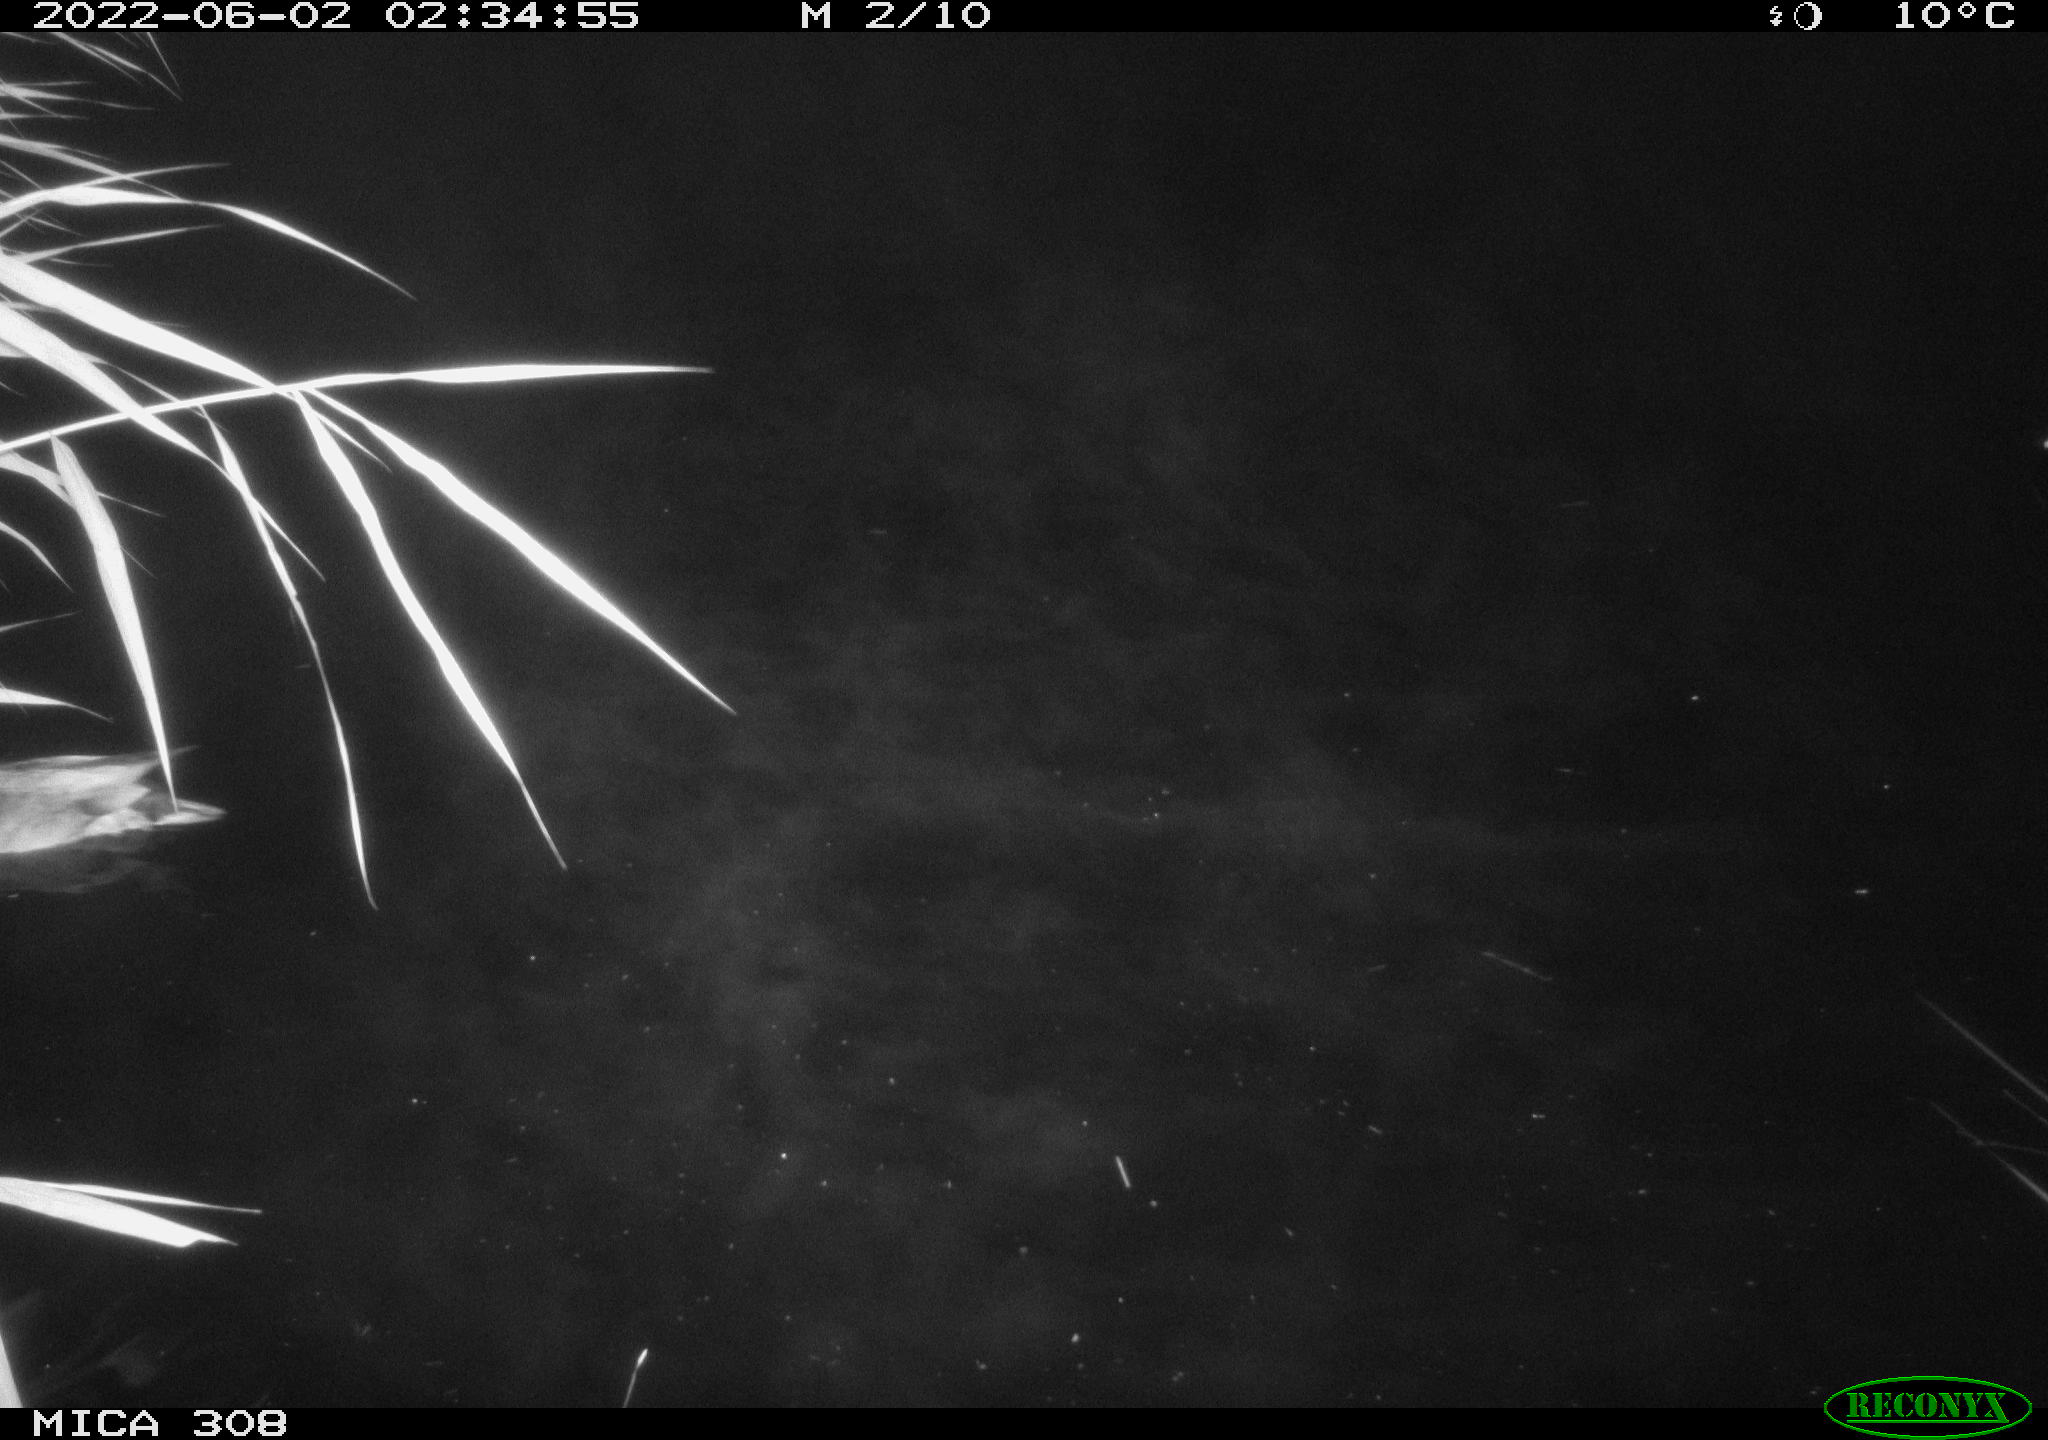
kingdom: Animalia
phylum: Chordata
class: Aves
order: Anseriformes
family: Anatidae
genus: Anas
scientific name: Anas platyrhynchos
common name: Mallard
